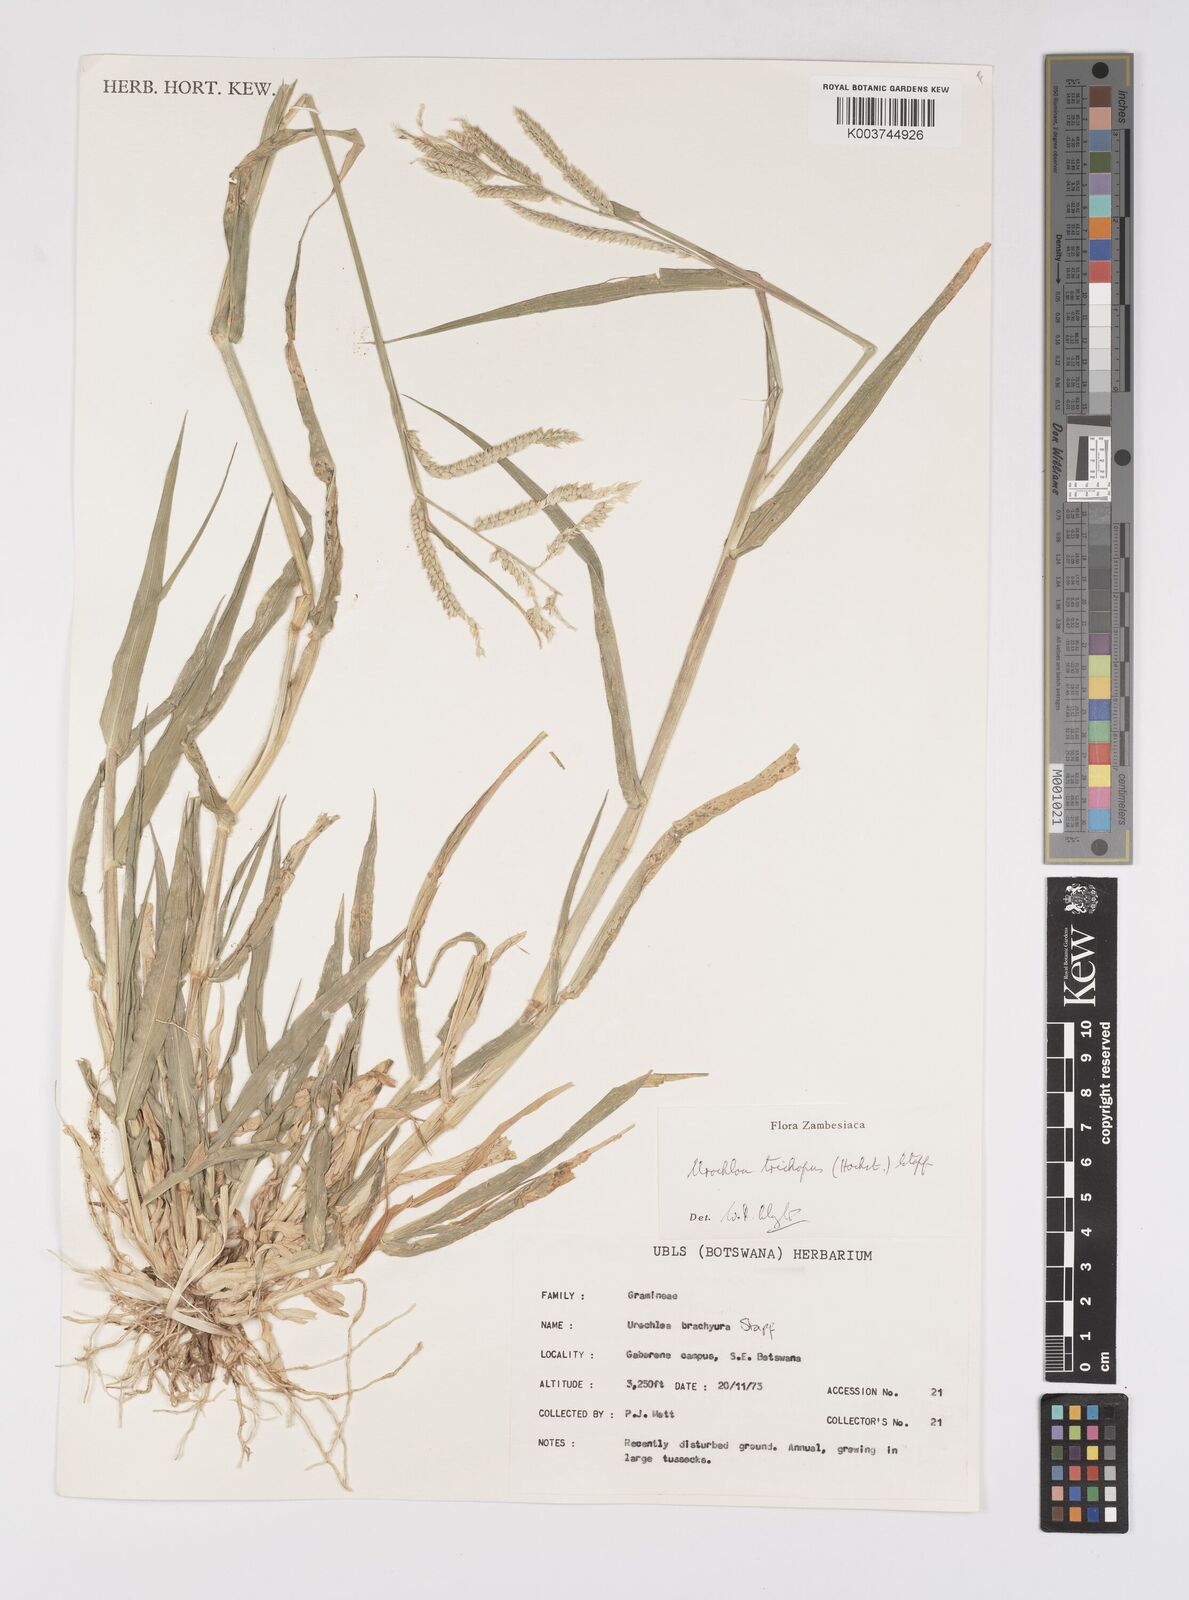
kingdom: Plantae
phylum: Tracheophyta
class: Liliopsida
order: Poales
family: Poaceae
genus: Urochloa
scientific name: Urochloa trichopus
